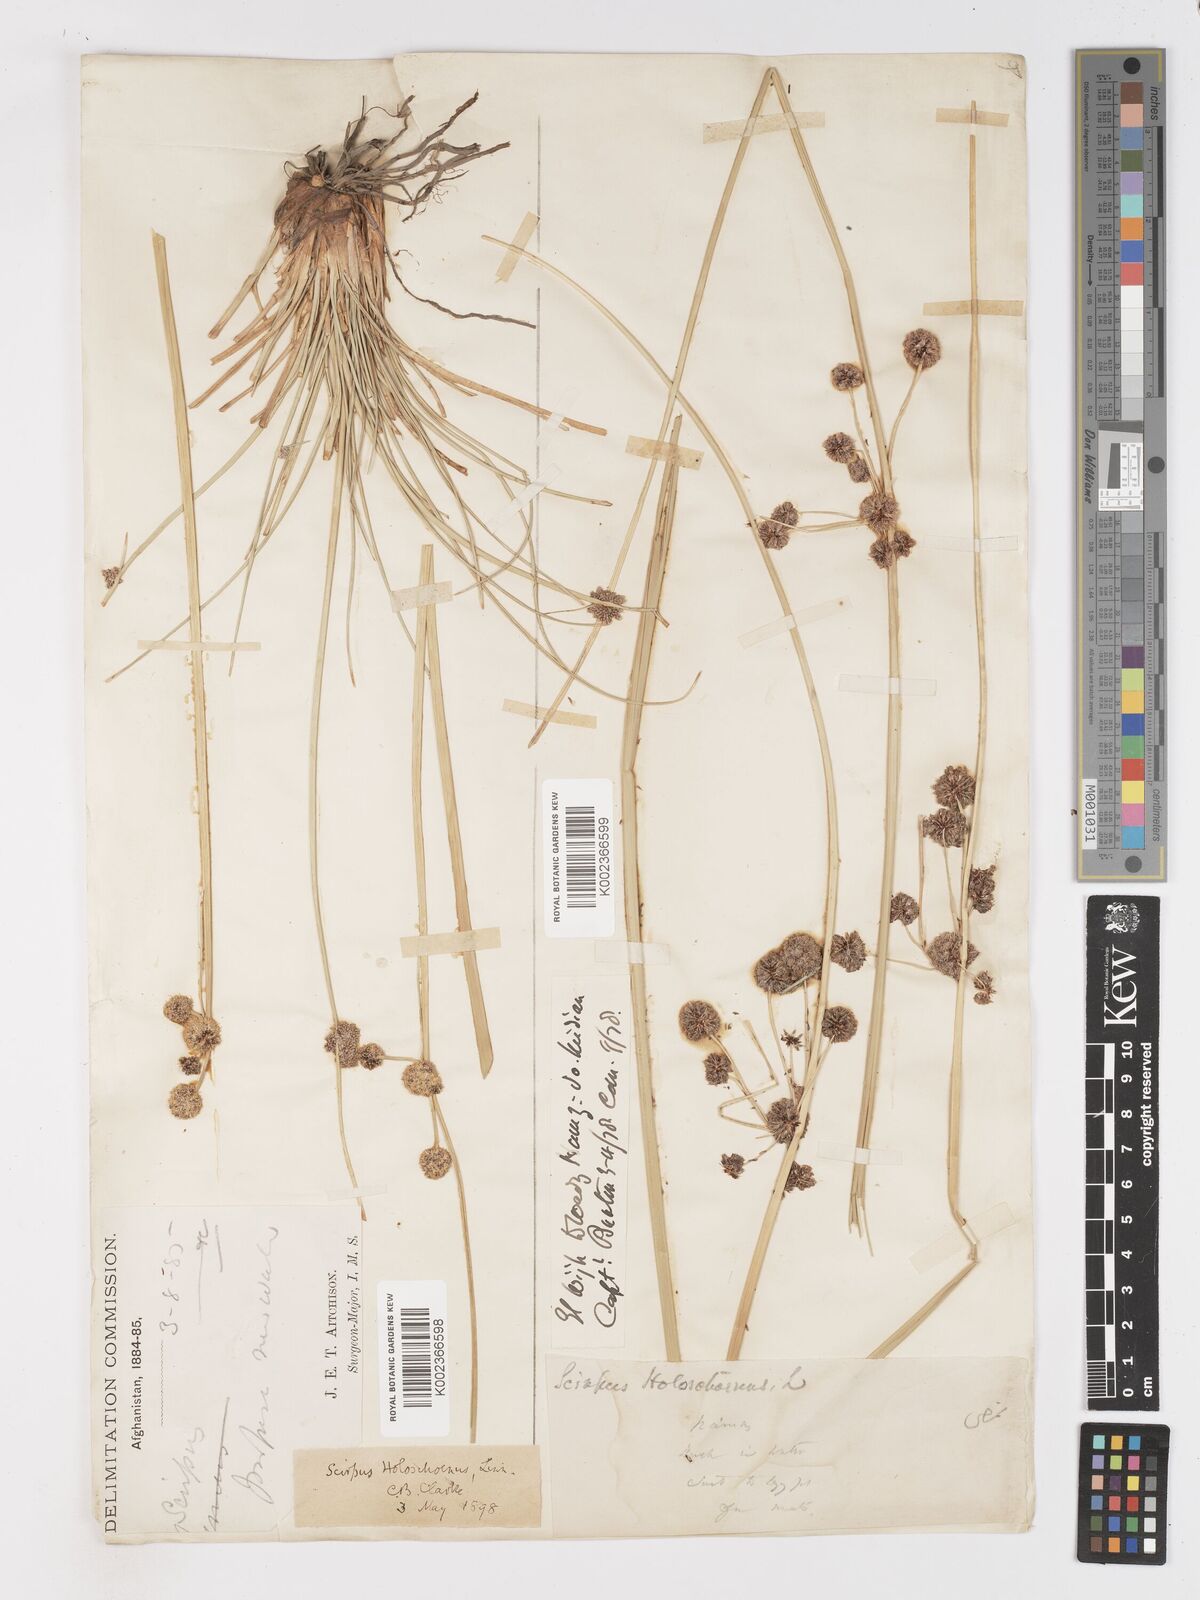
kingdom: Plantae
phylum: Tracheophyta
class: Liliopsida
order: Poales
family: Cyperaceae
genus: Scirpoides
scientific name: Scirpoides holoschoenus
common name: Round-headed club-rush
